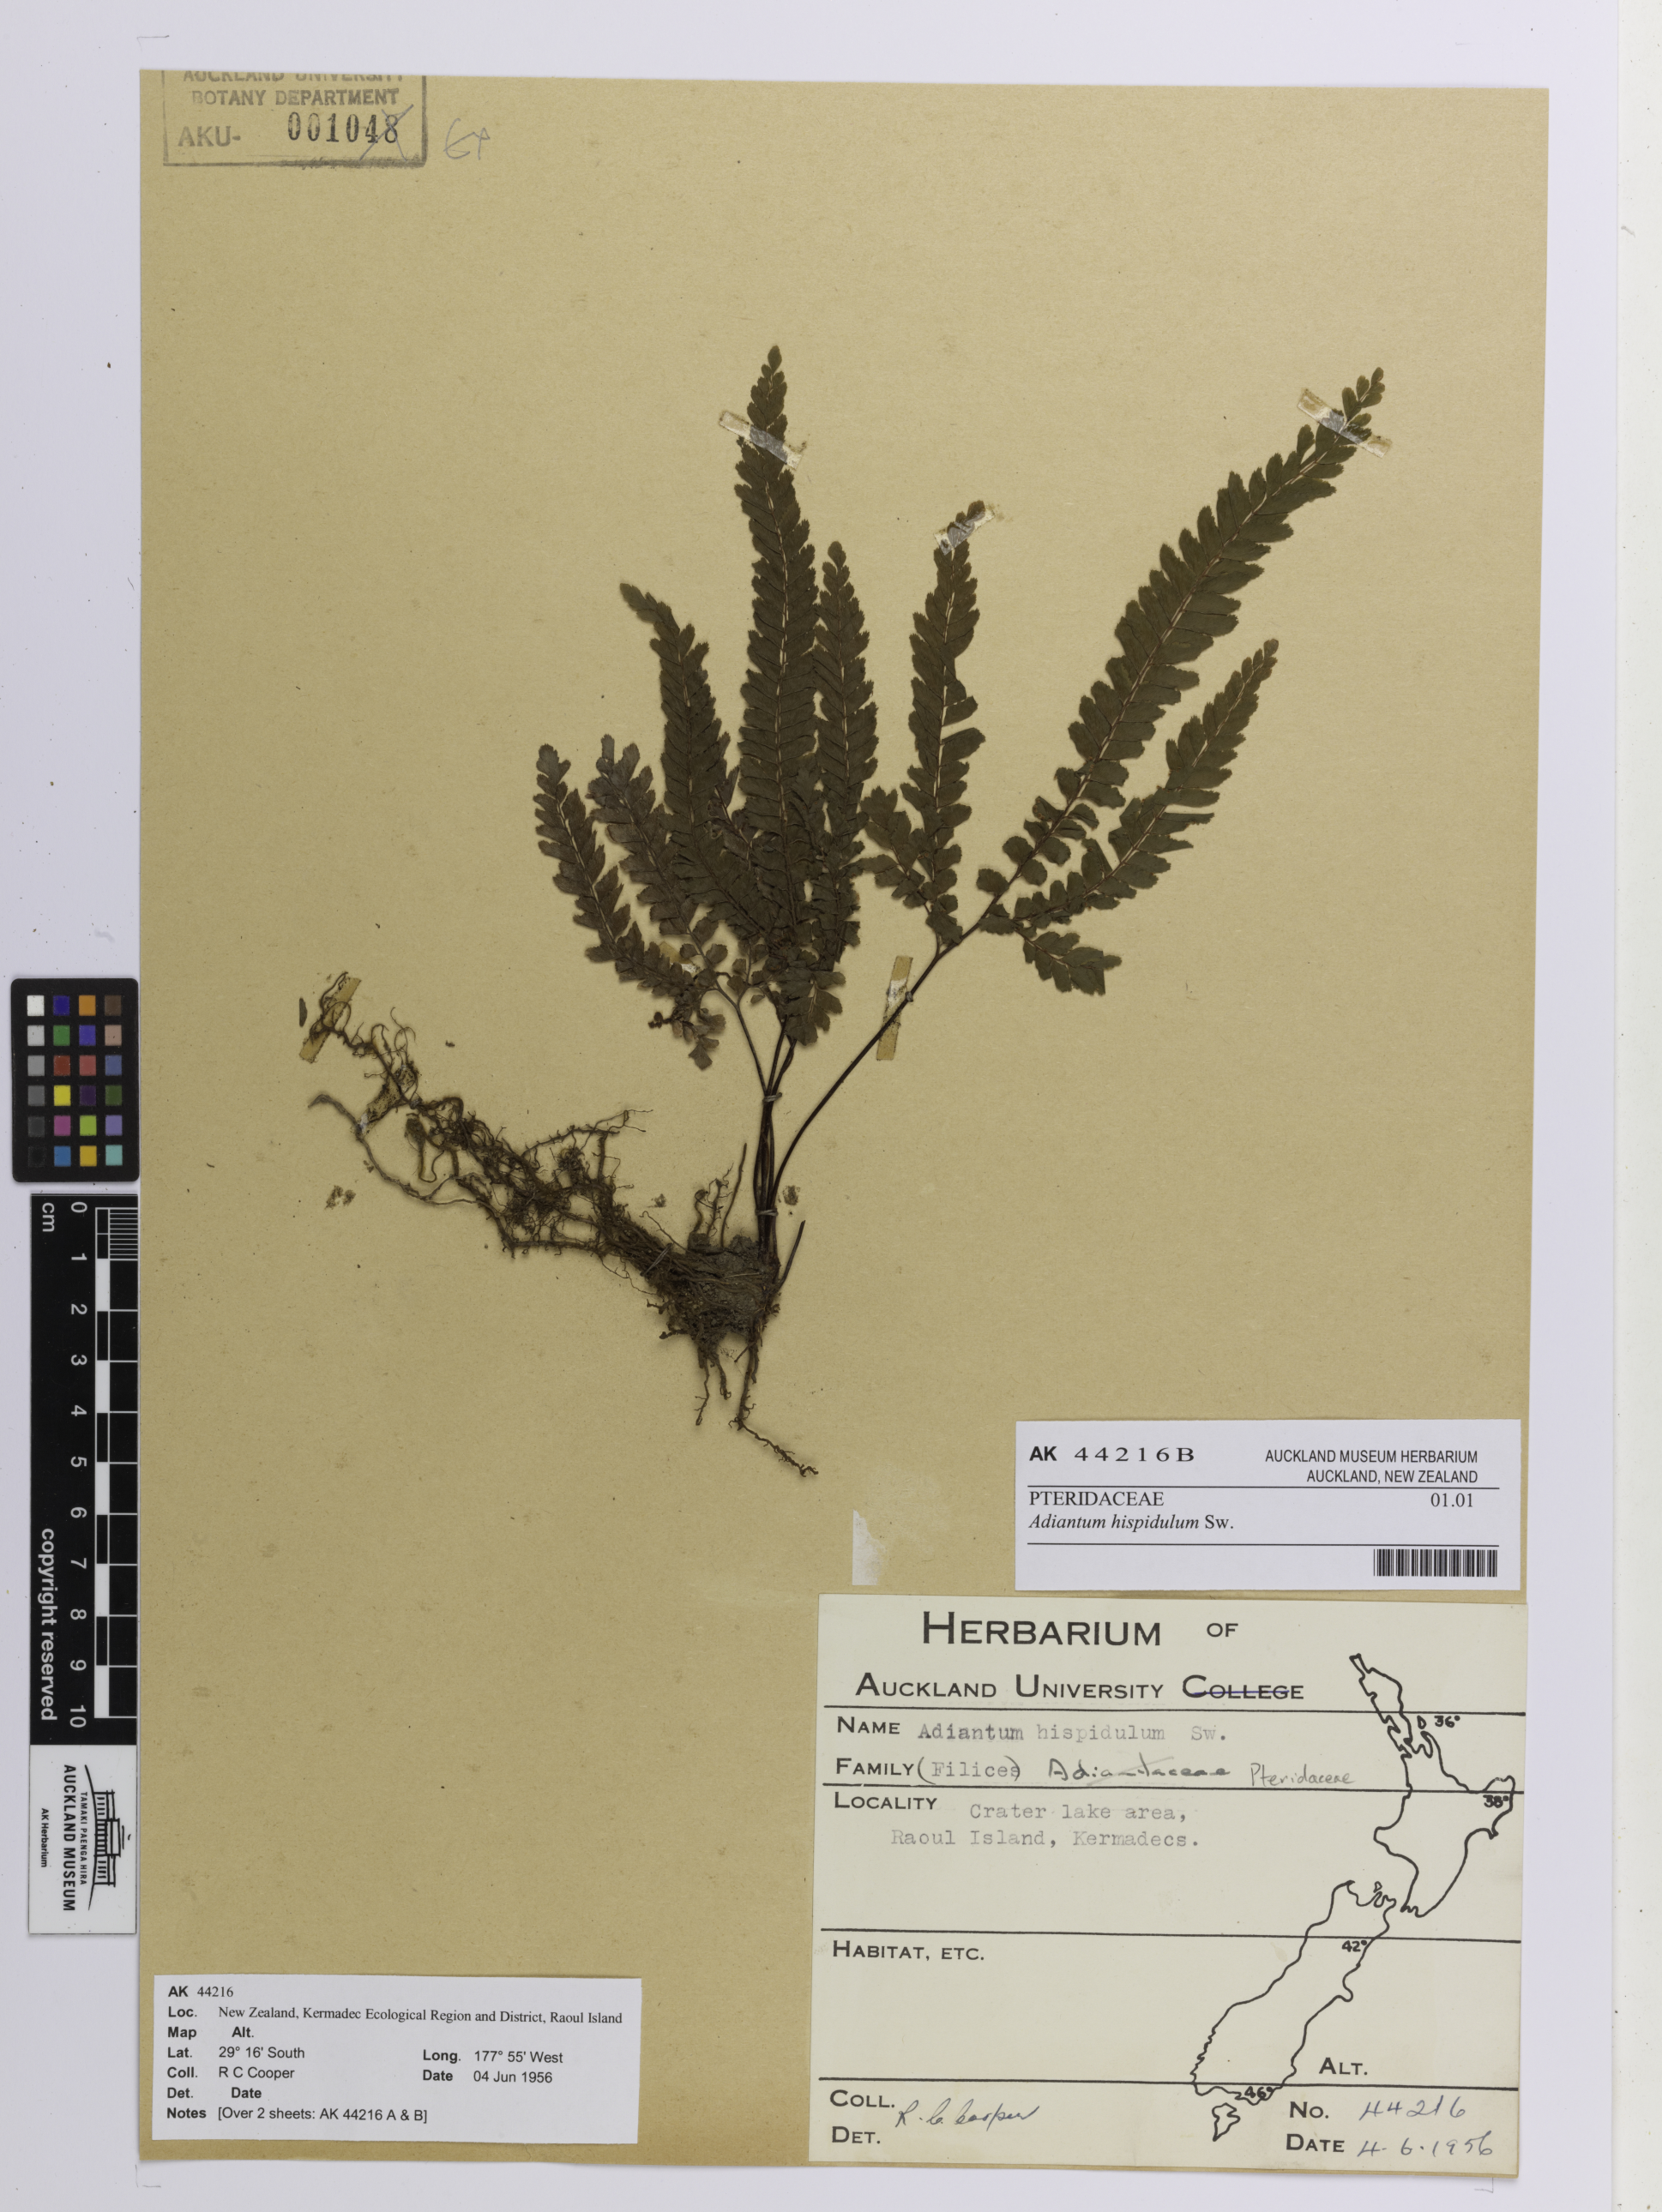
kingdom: Plantae
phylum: Tracheophyta
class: Polypodiopsida
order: Polypodiales
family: Pteridaceae
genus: Adiantum
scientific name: Adiantum hispidulum
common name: Rough maidenhair
